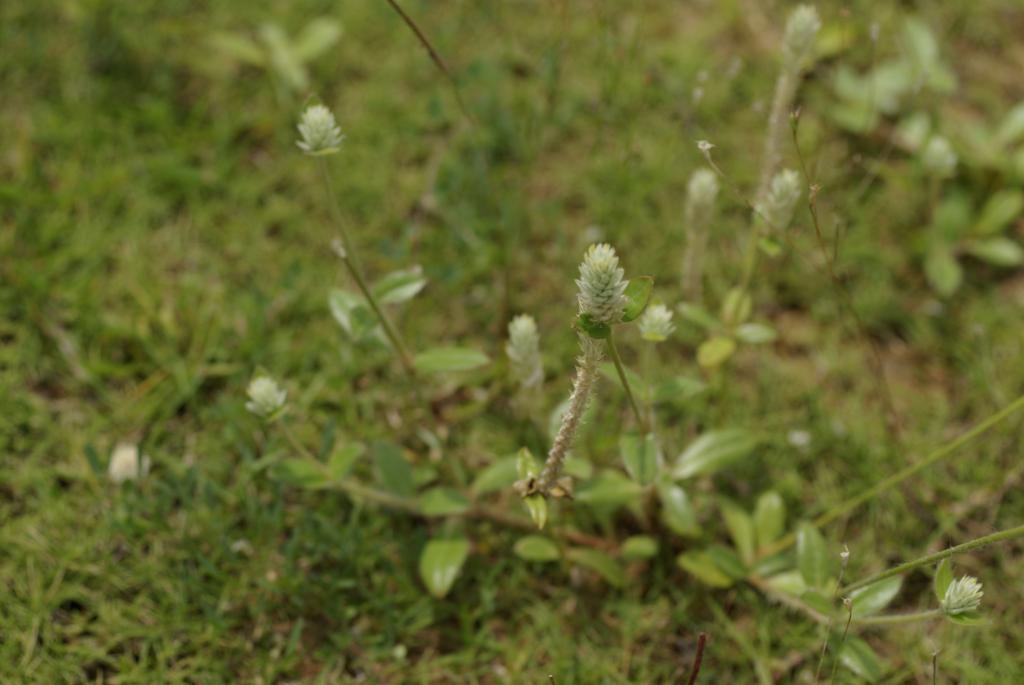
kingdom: Plantae
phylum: Tracheophyta
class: Magnoliopsida
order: Caryophyllales
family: Amaranthaceae
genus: Gomphrena
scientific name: Gomphrena celosioides
